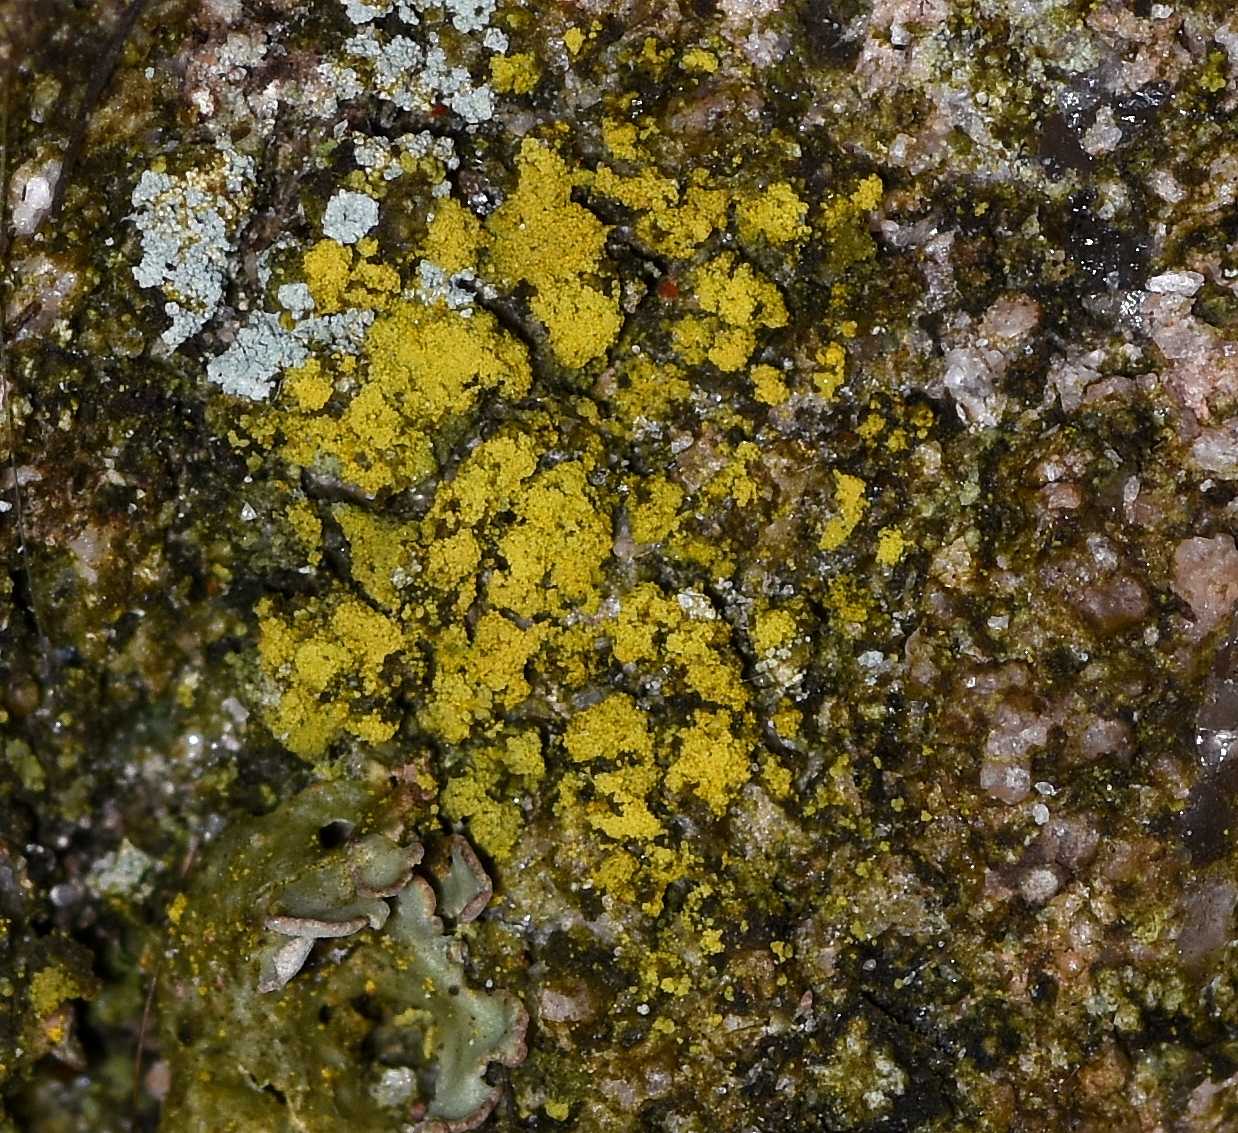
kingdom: Fungi
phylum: Ascomycota
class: Candelariomycetes
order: Candelariales
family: Candelariaceae
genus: Candelariella
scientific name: Candelariella vitellina
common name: almindelig æggeblommelav
